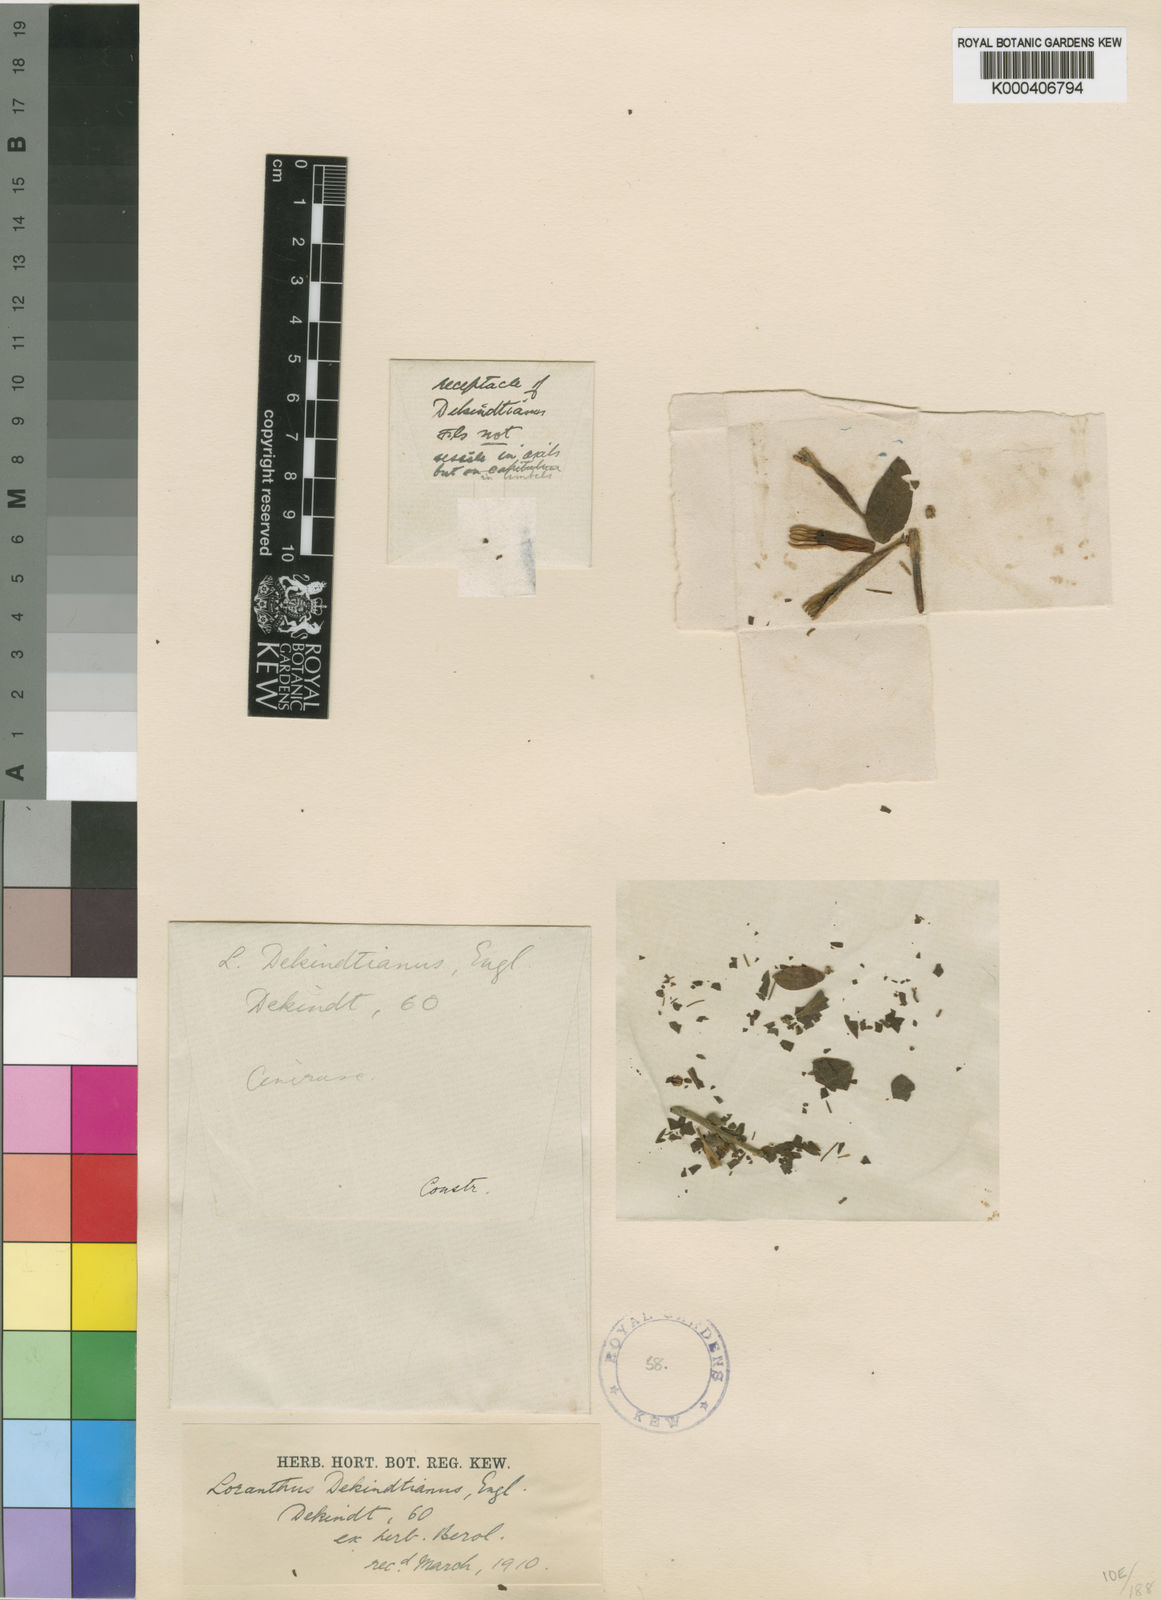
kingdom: Plantae
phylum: Tracheophyta
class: Magnoliopsida
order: Santalales
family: Loranthaceae
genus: Agelanthus
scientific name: Agelanthus molleri
